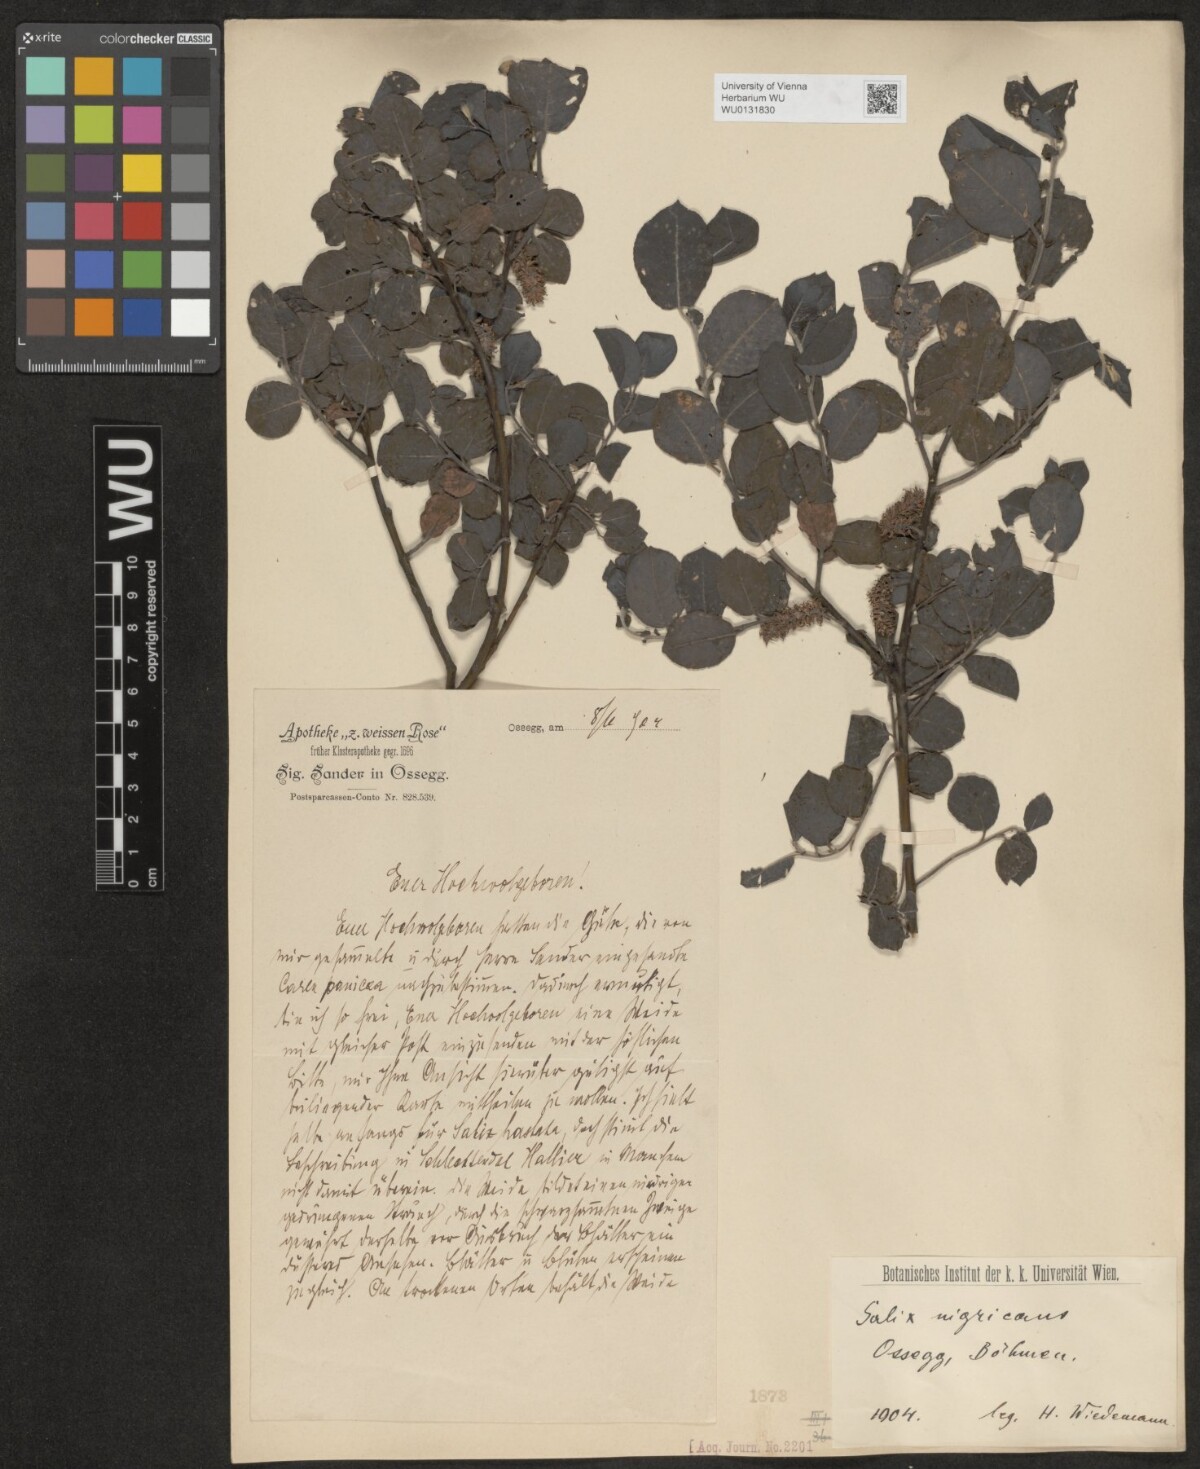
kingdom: Plantae
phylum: Tracheophyta
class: Magnoliopsida
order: Malpighiales
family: Salicaceae
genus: Salix
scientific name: Salix myrsinifolia
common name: Dark-leaved willow
